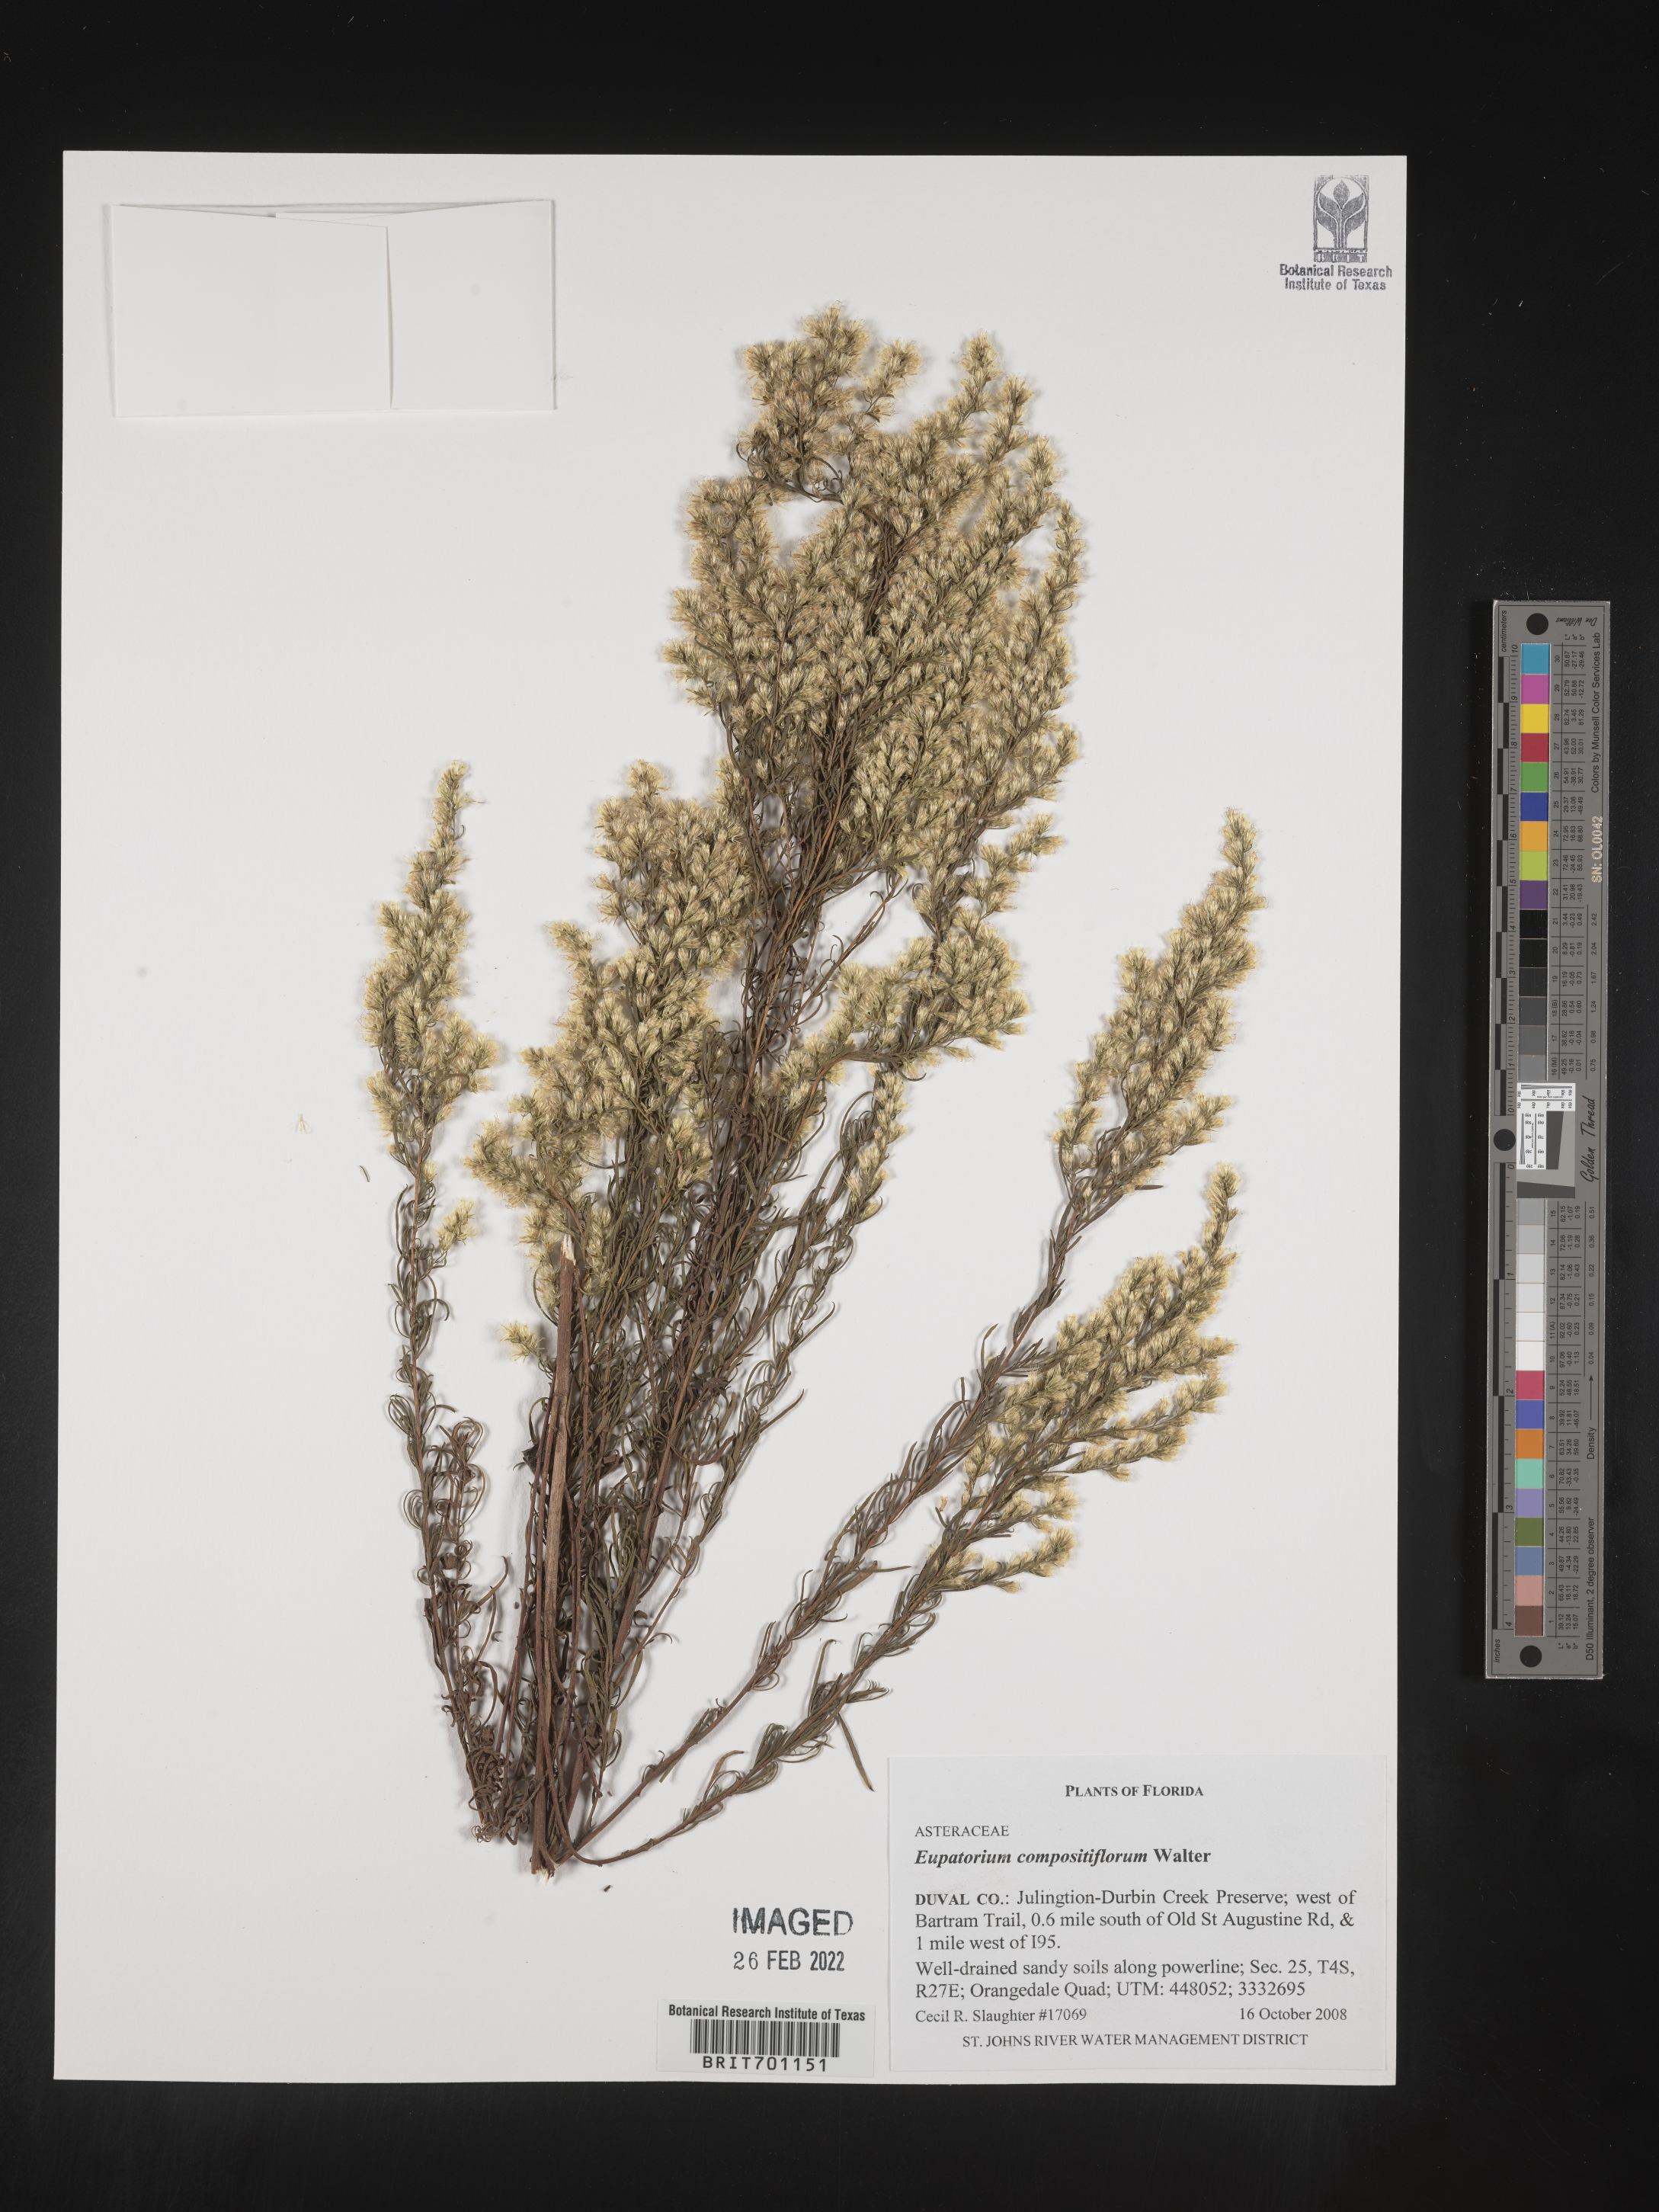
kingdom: Plantae
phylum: Tracheophyta
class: Magnoliopsida
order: Asterales
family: Asteraceae
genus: Eupatorium
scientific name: Eupatorium compositifolium
